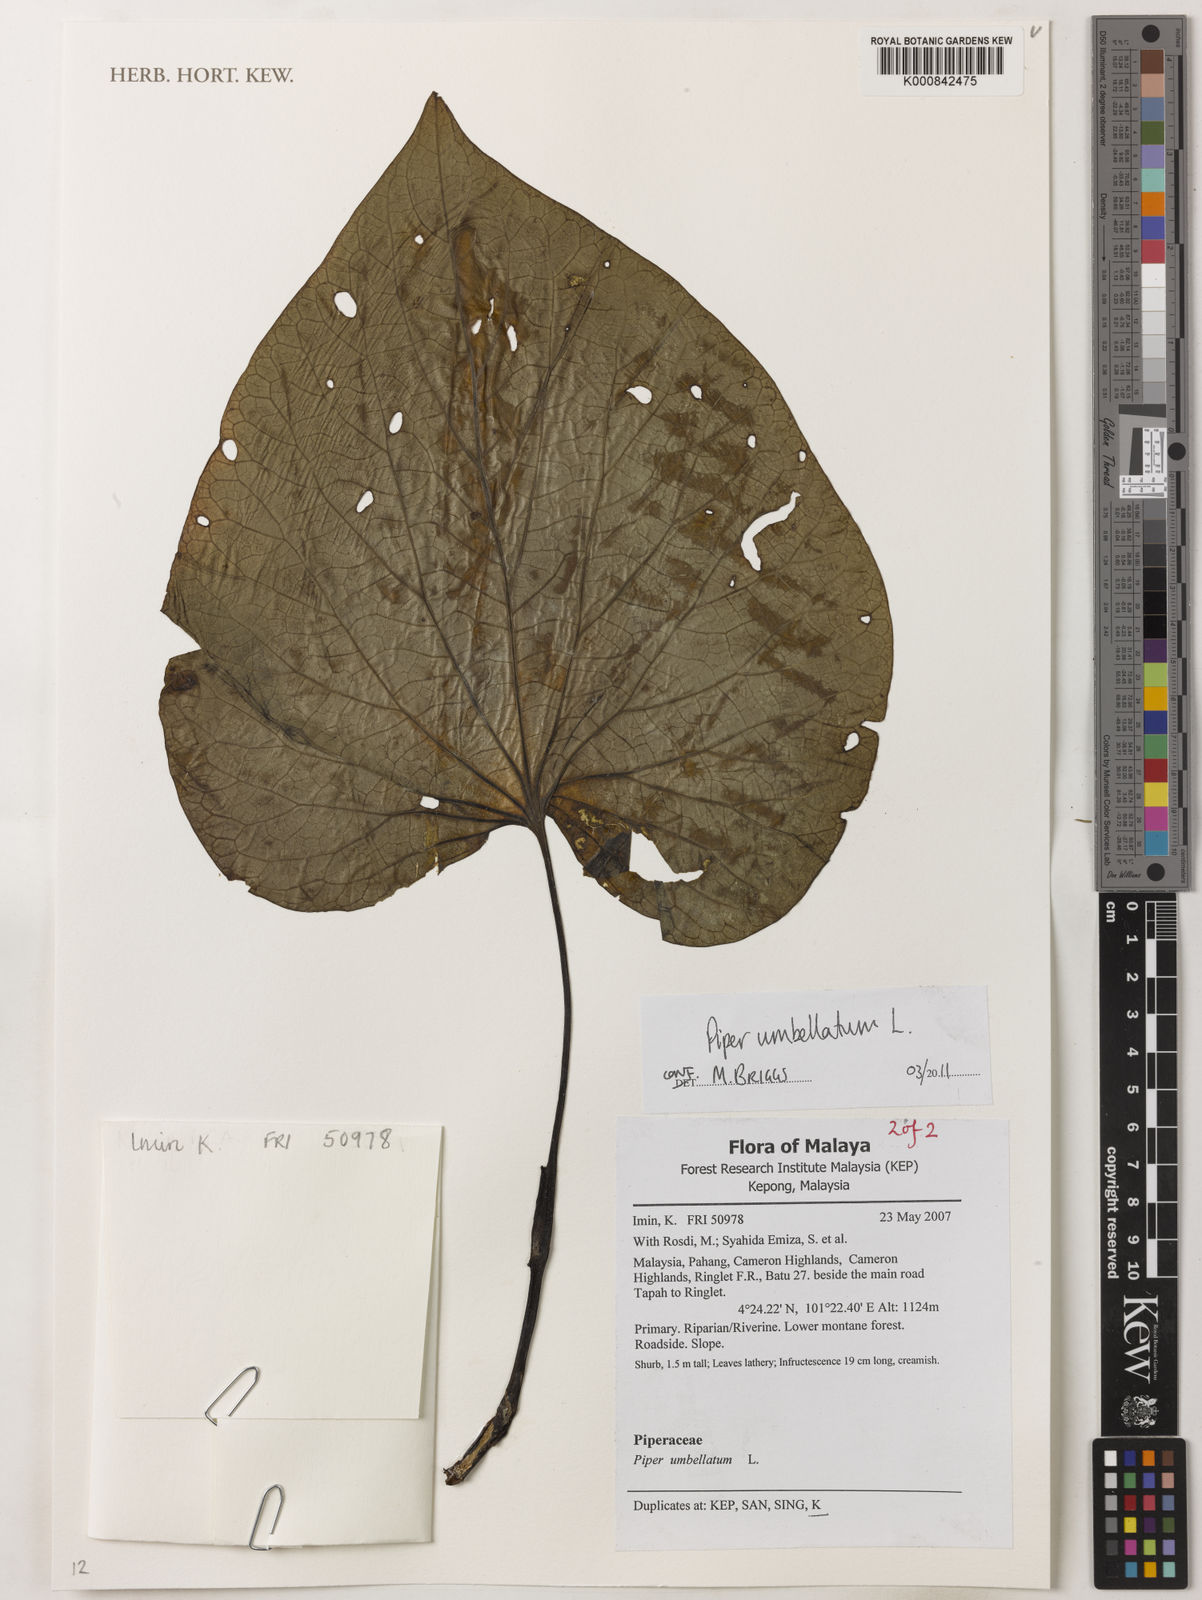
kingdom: Plantae
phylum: Tracheophyta
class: Magnoliopsida
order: Piperales
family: Piperaceae
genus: Piper
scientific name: Piper umbellatum
